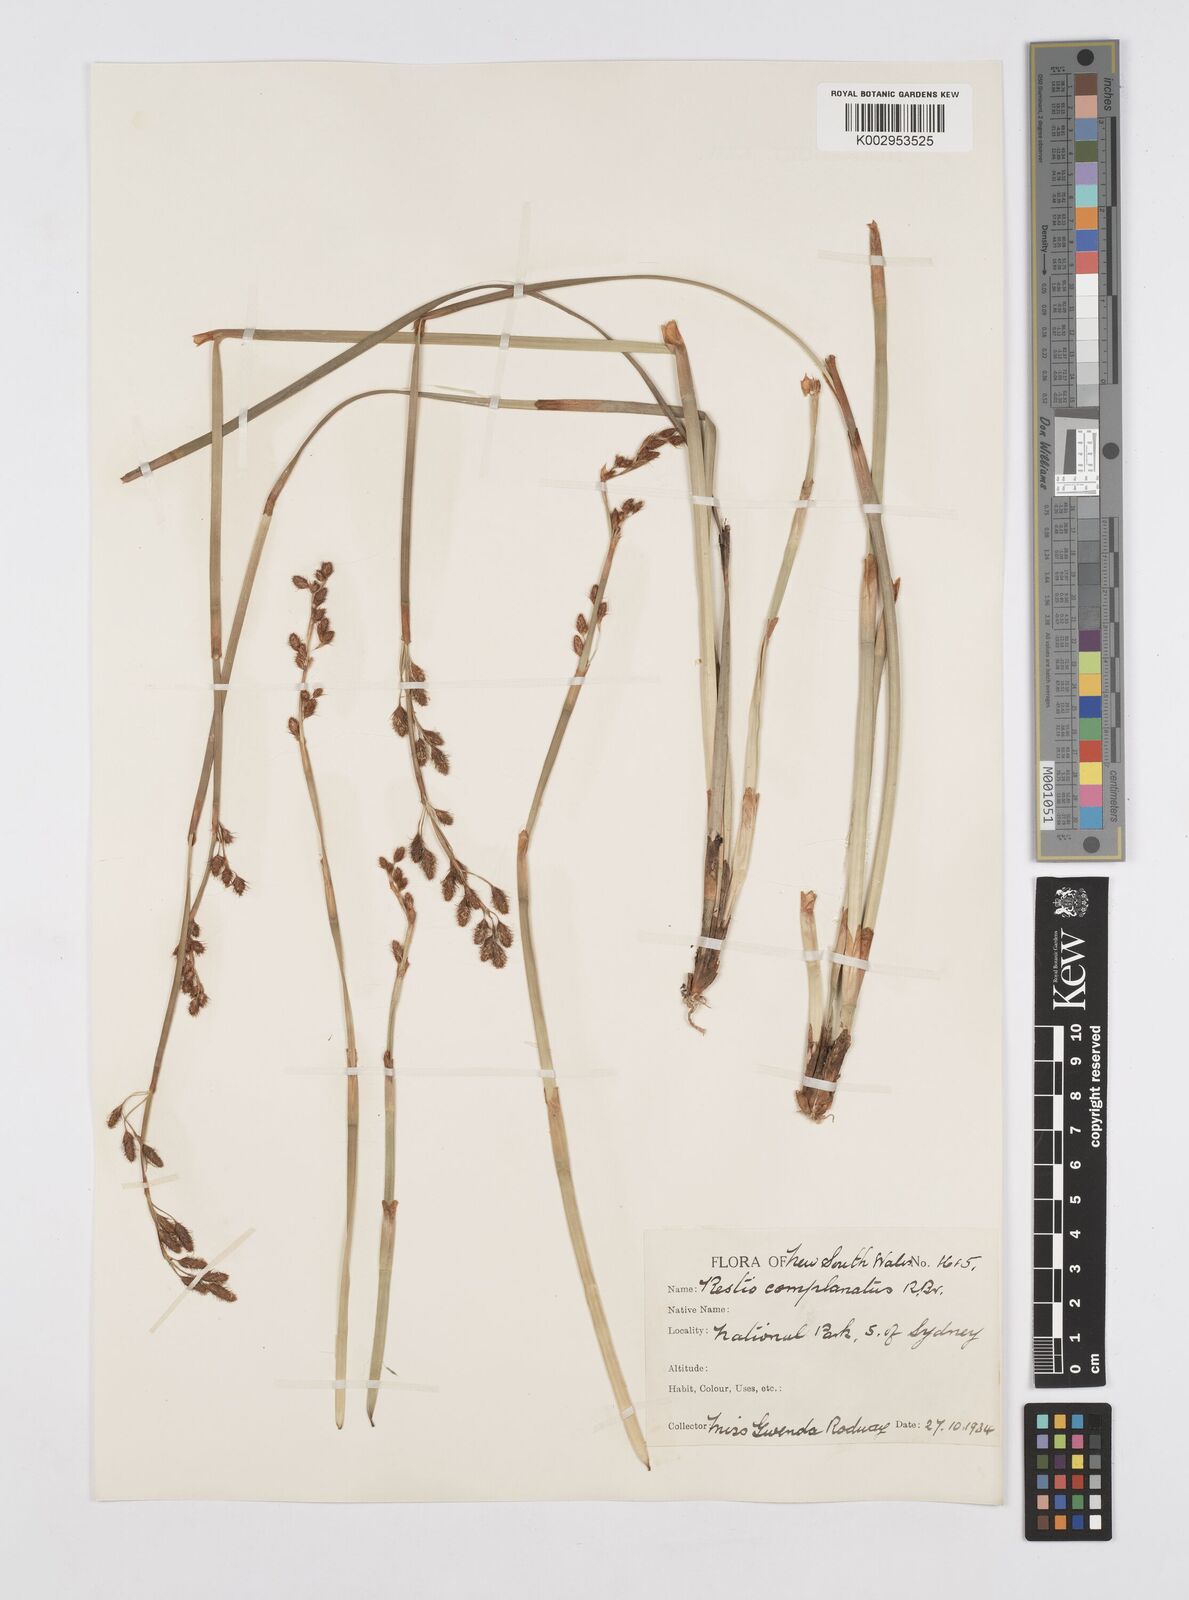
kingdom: Plantae
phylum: Tracheophyta
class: Liliopsida
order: Poales
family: Restionaceae
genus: Eurychorda
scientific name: Eurychorda complanata
